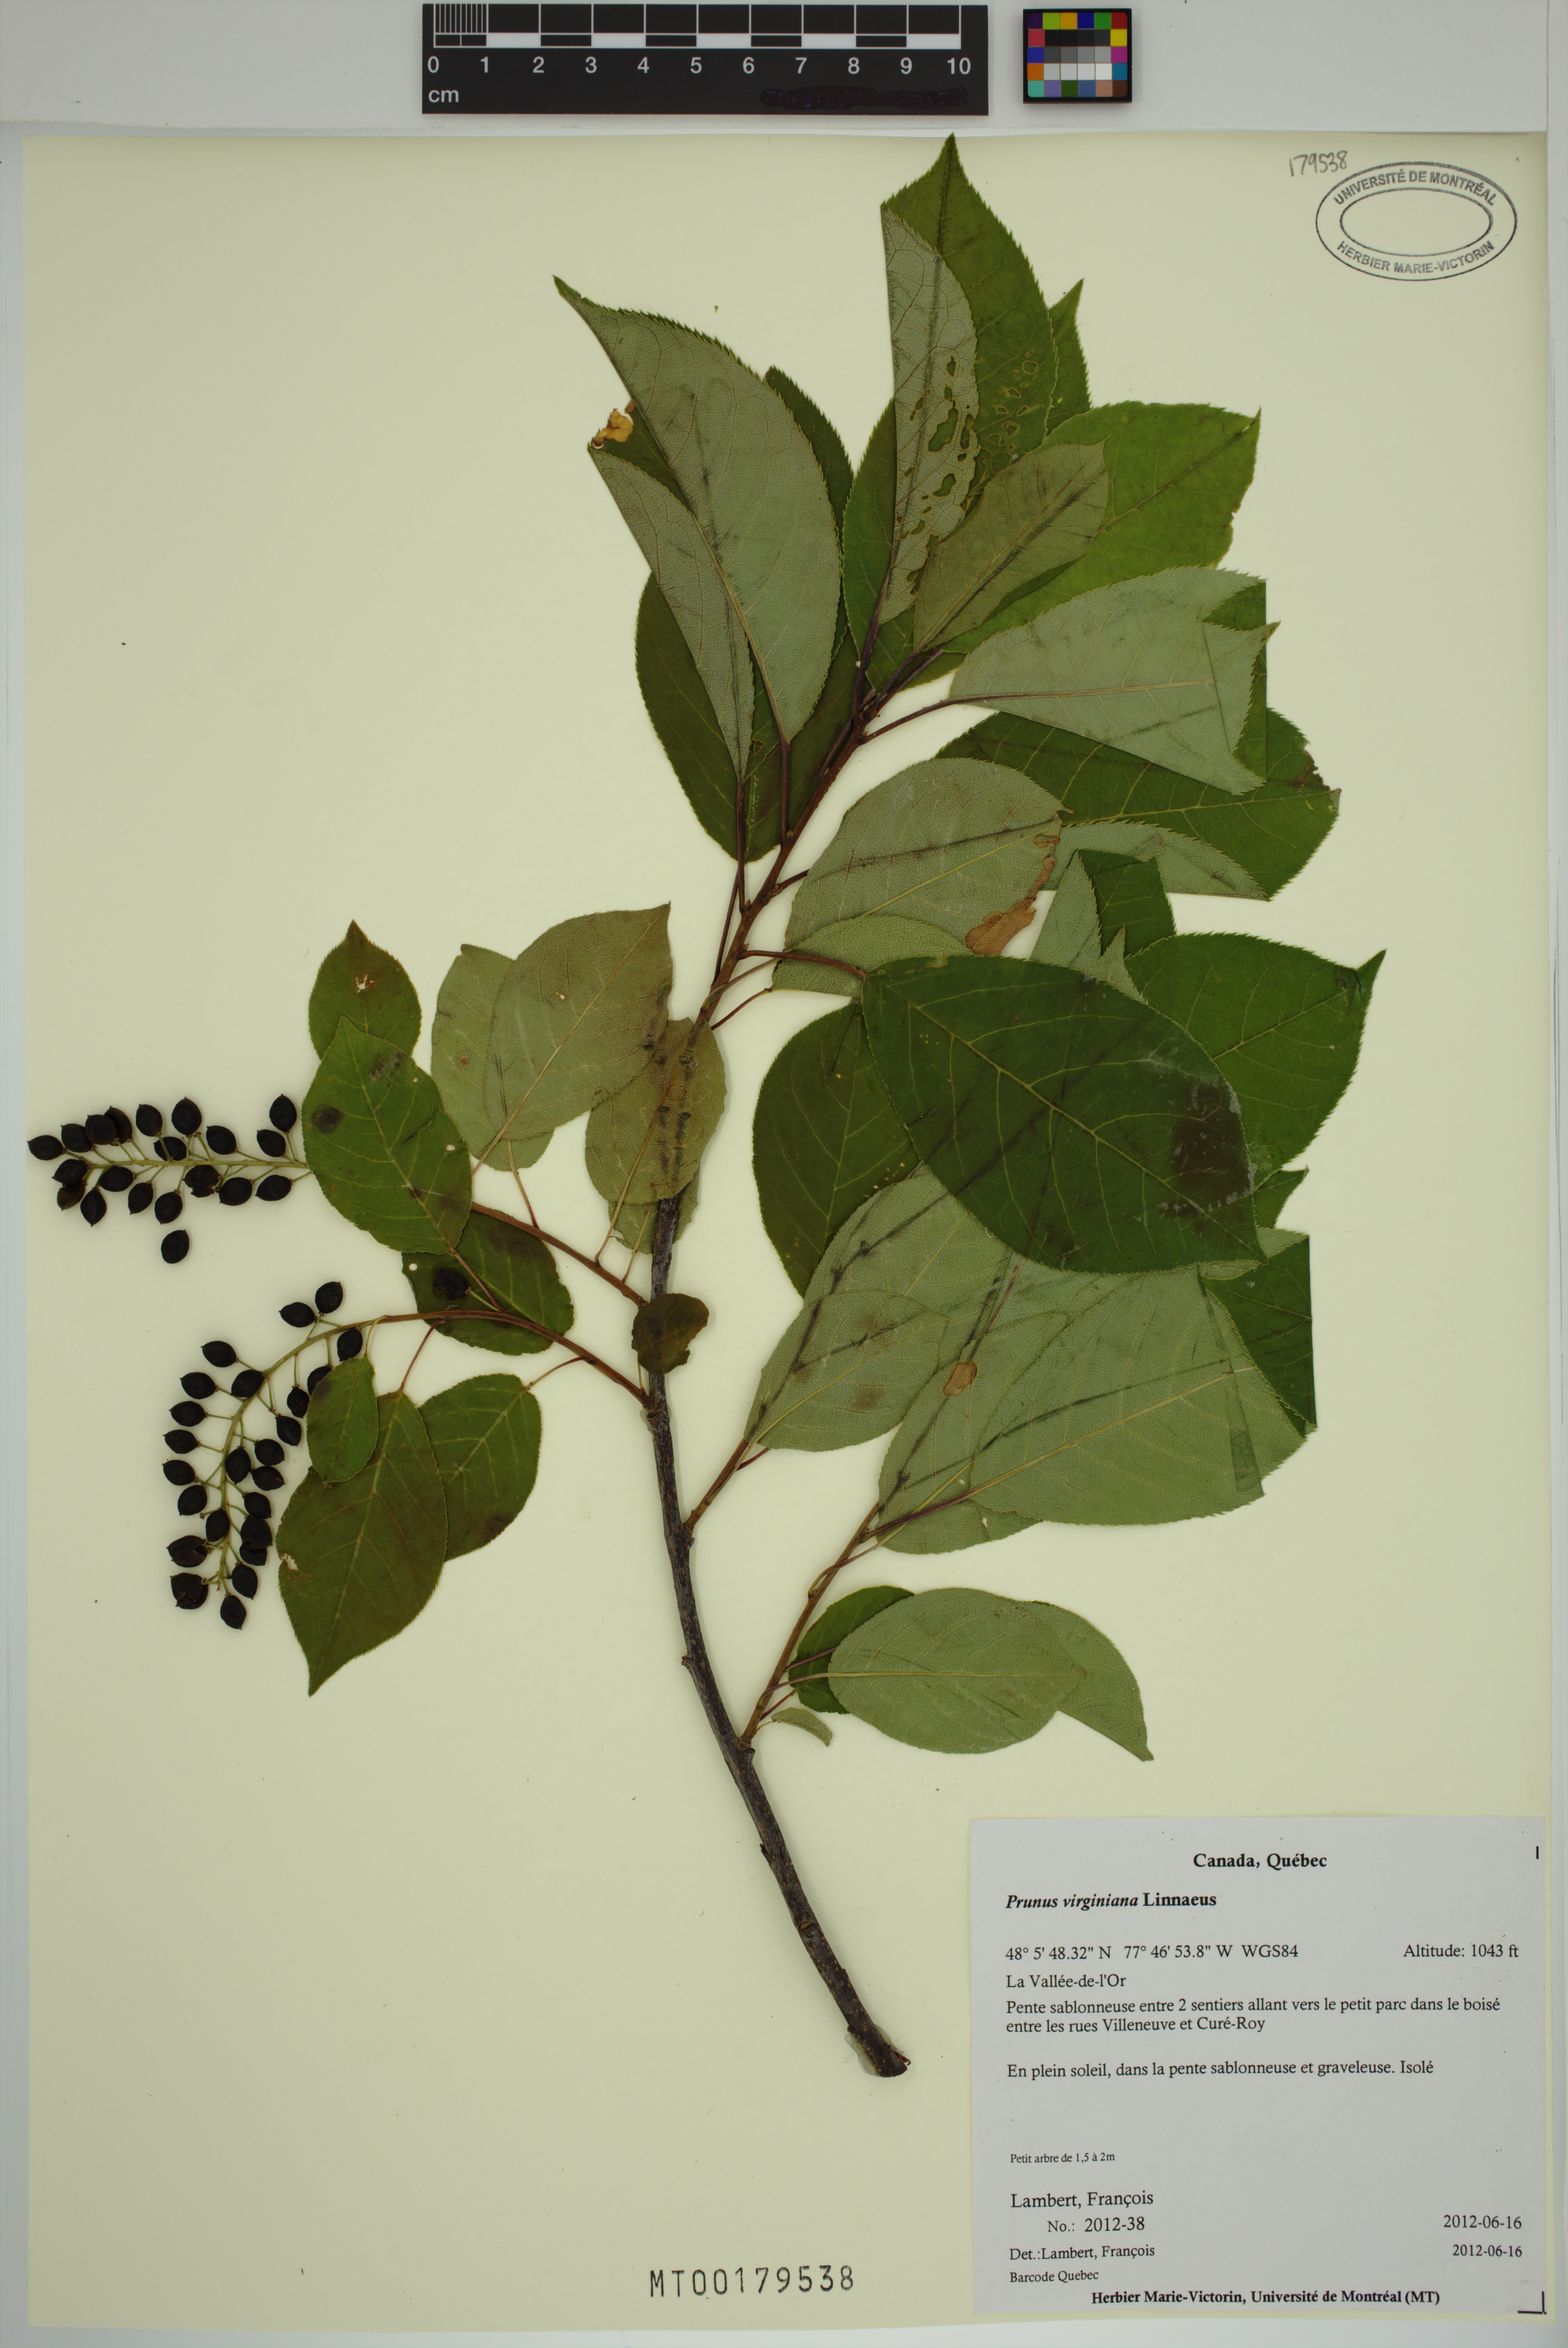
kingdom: Plantae
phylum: Tracheophyta
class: Magnoliopsida
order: Rosales
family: Rosaceae
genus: Prunus
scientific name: Prunus virginiana
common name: Chokecherry
